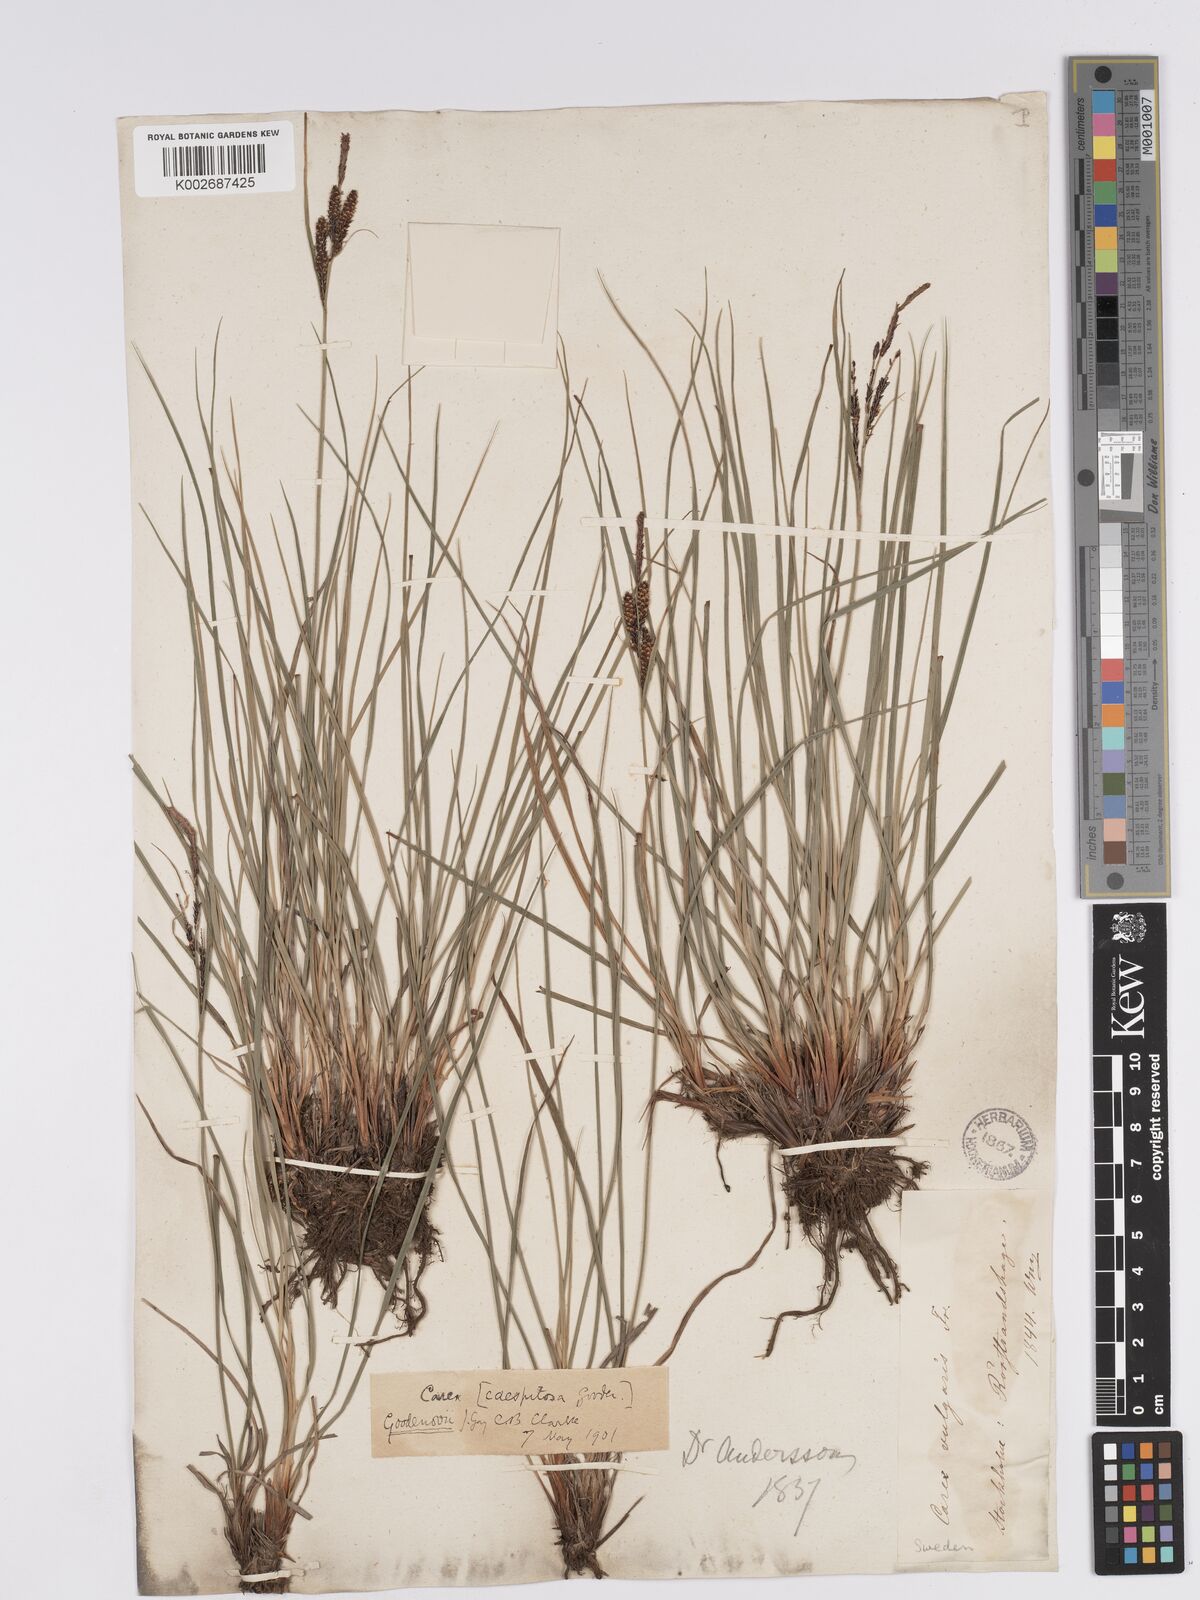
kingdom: Plantae
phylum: Tracheophyta
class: Liliopsida
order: Poales
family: Cyperaceae
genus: Carex
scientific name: Carex nigra
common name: Common sedge
